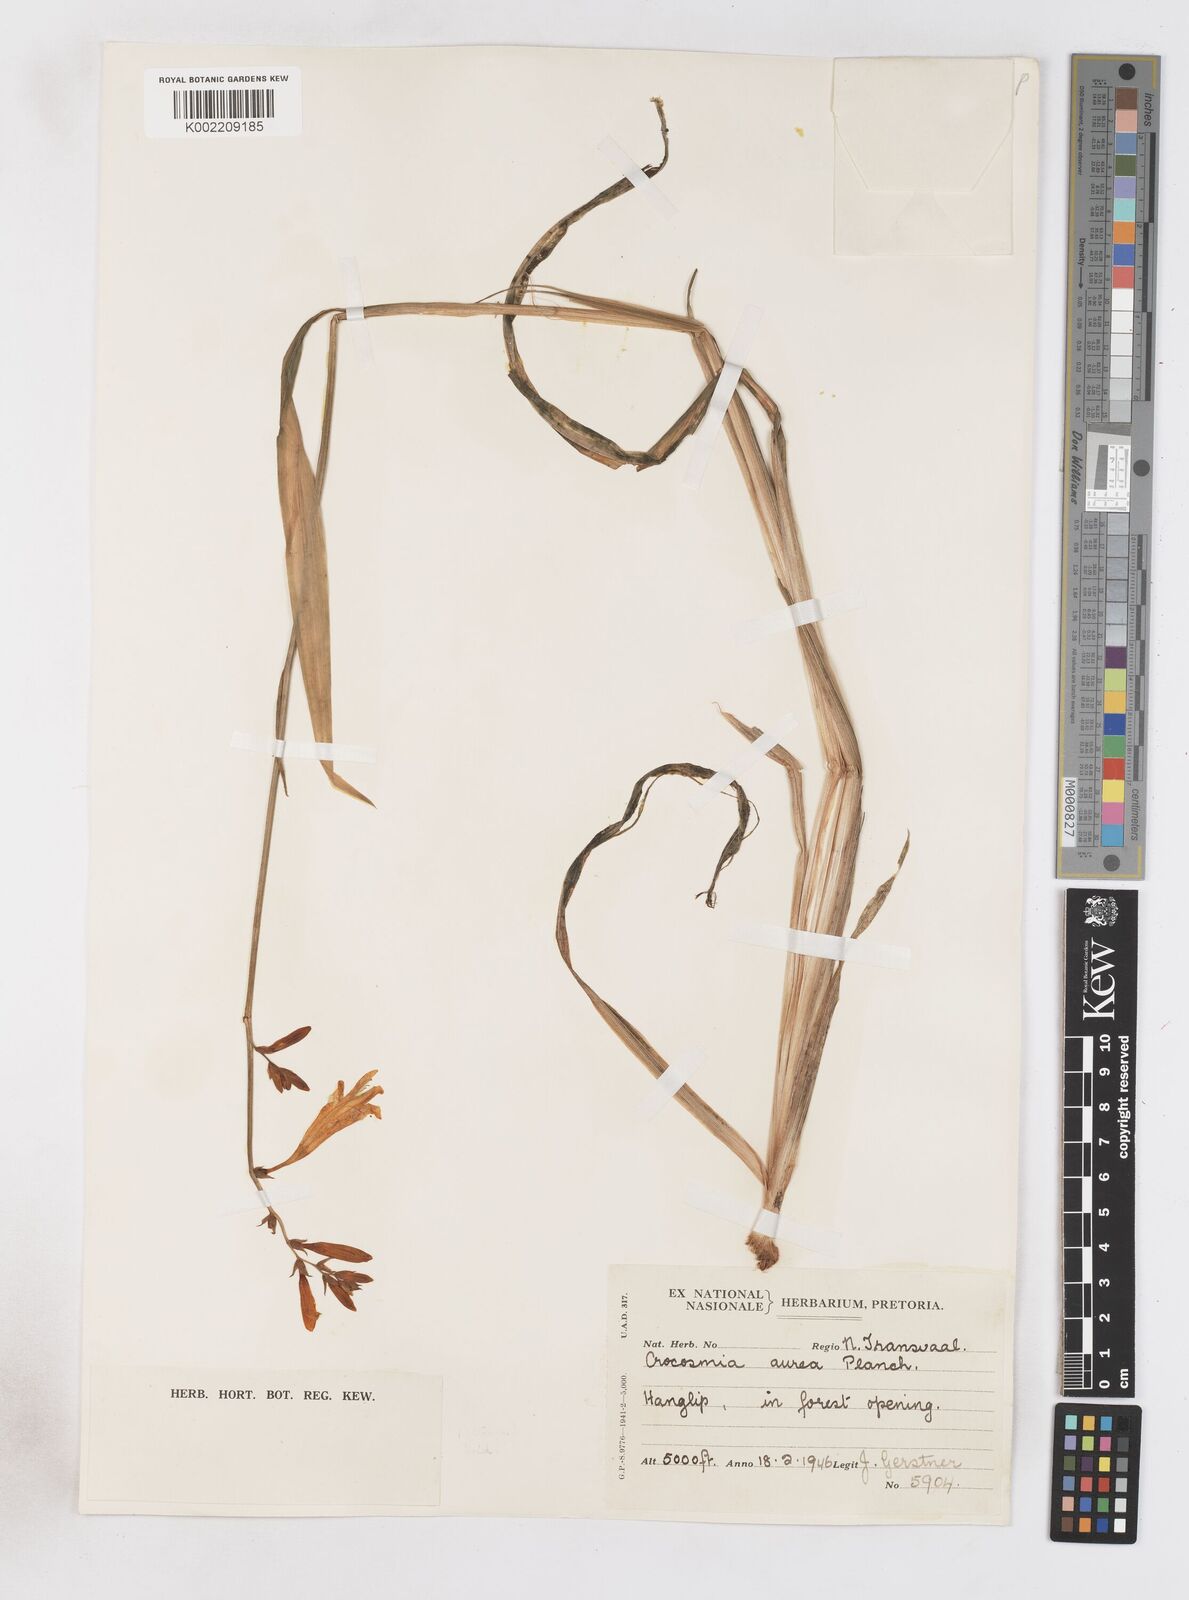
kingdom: Plantae
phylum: Tracheophyta
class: Liliopsida
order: Asparagales
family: Iridaceae
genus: Crocosmia
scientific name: Crocosmia aurea
